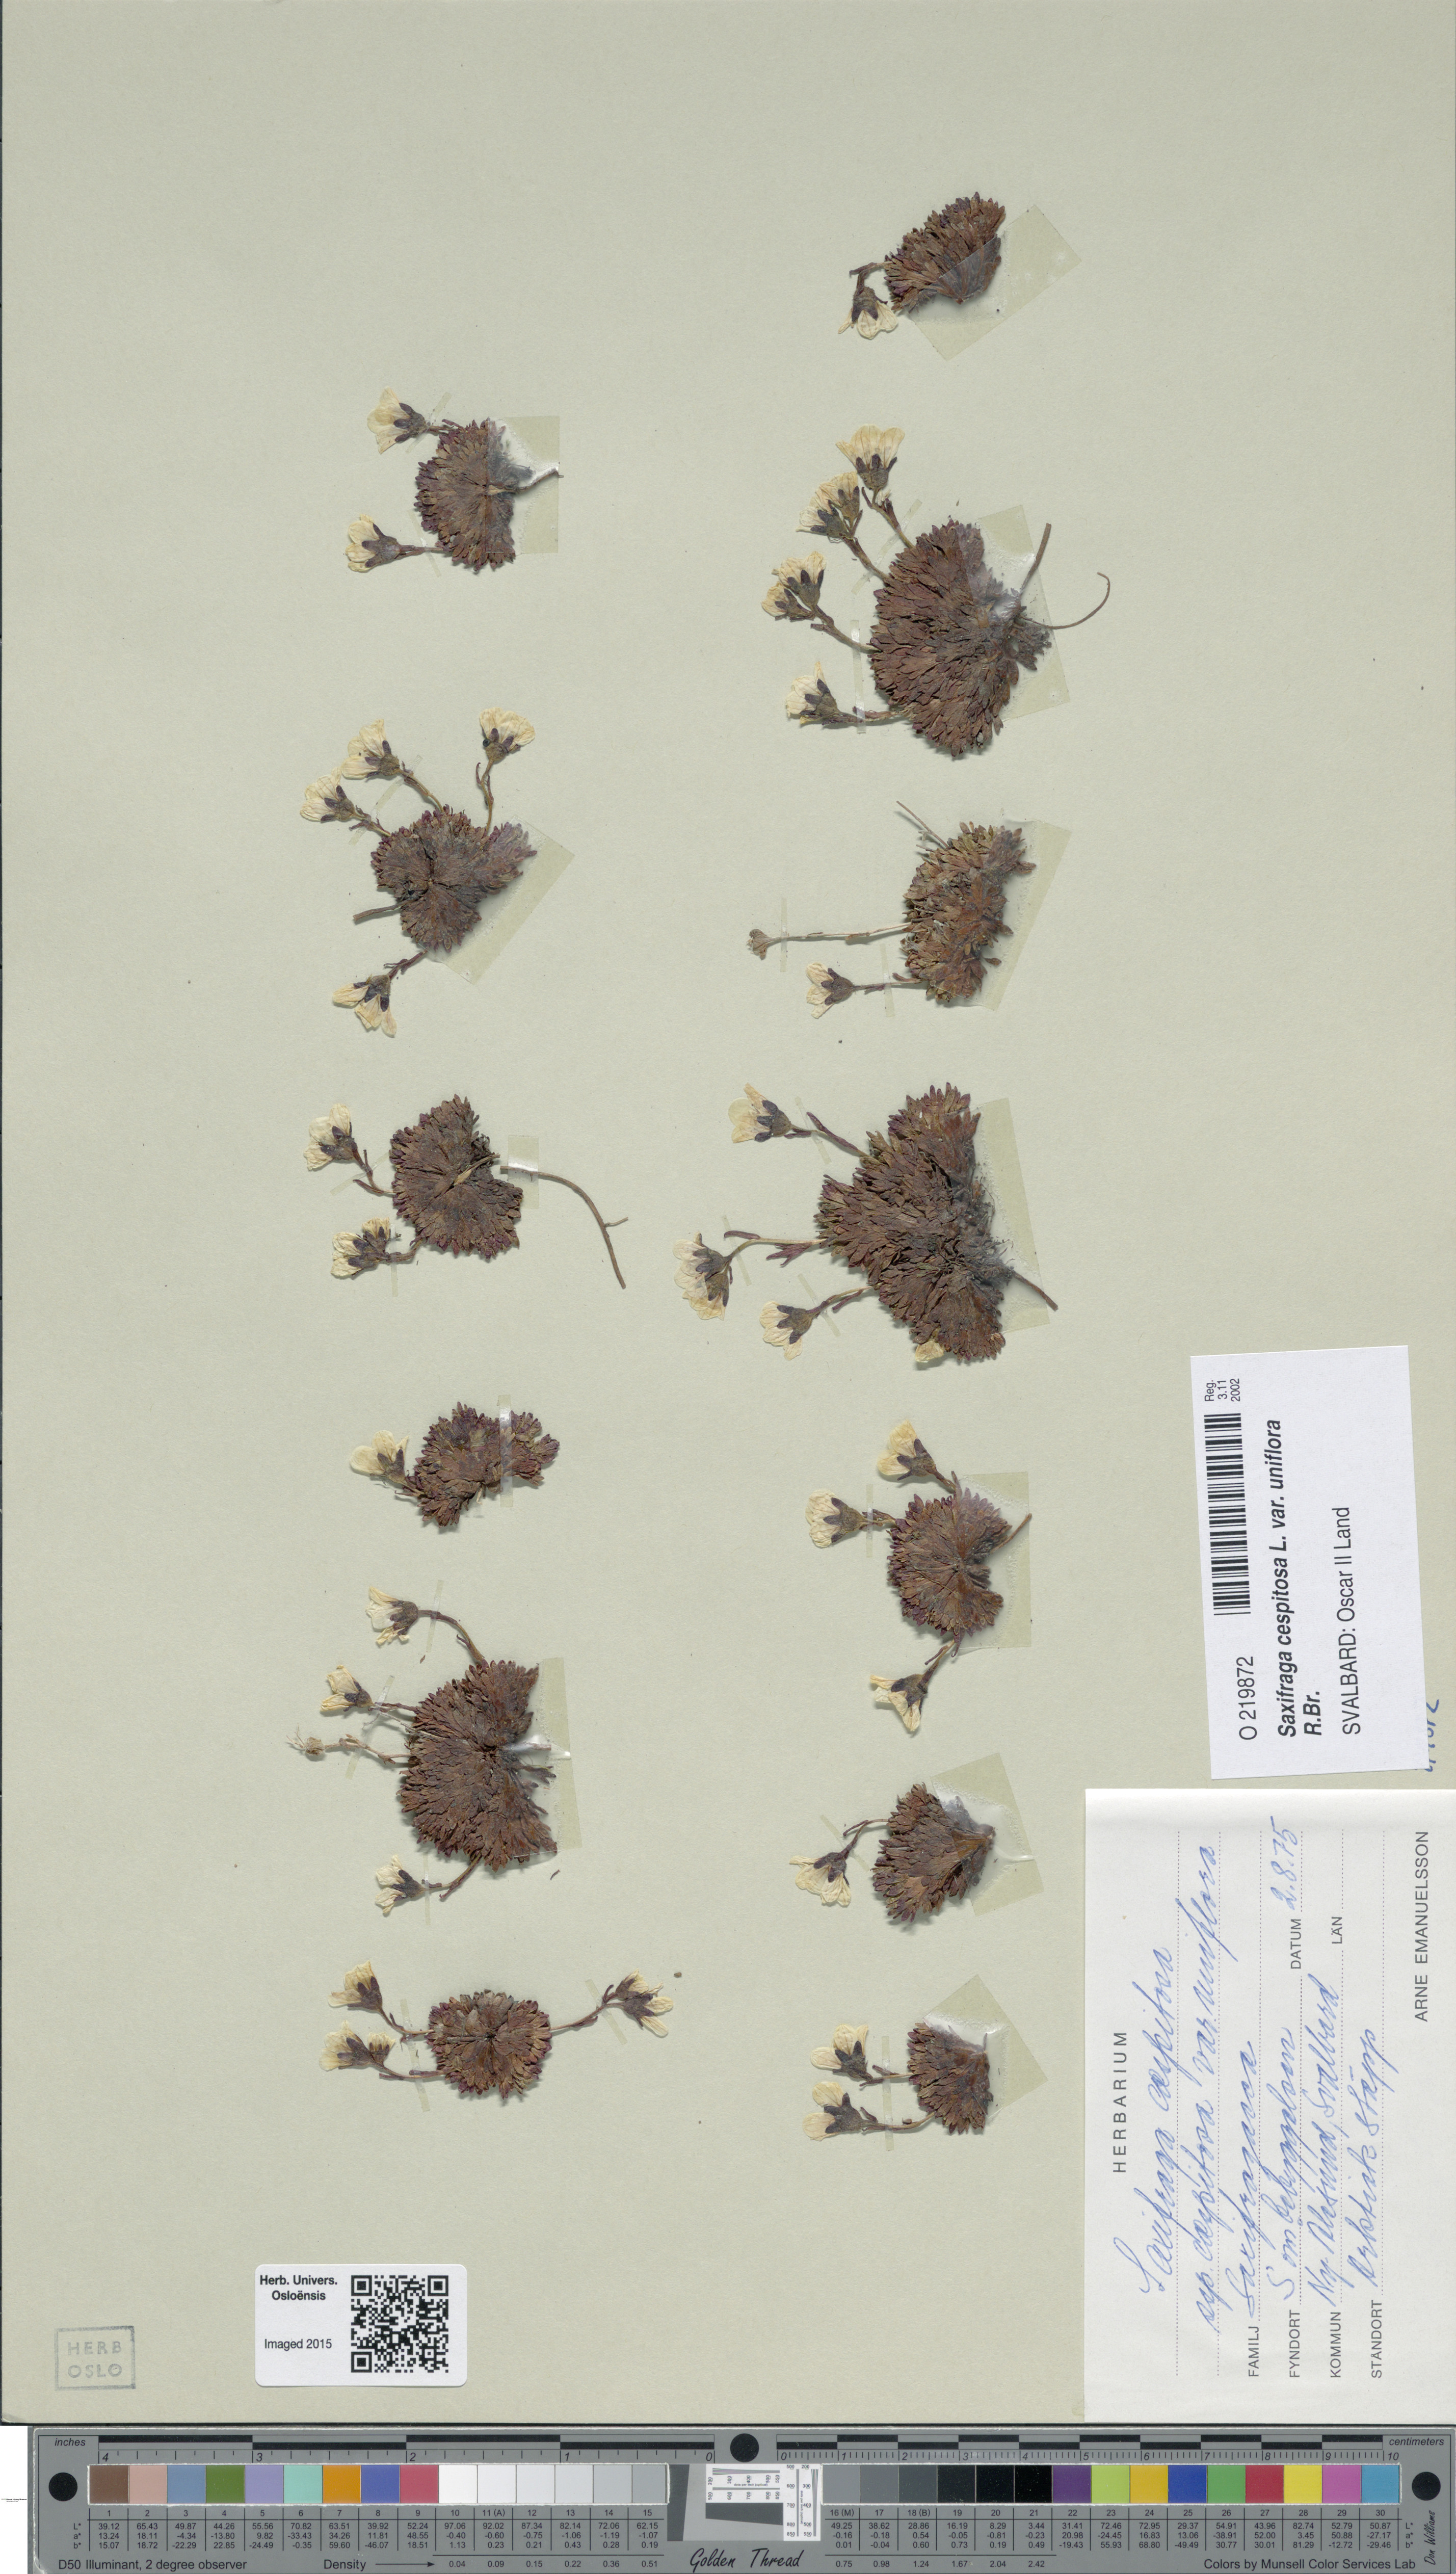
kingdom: Plantae
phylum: Tracheophyta
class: Magnoliopsida
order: Saxifragales
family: Saxifragaceae
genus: Saxifraga
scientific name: Saxifraga cespitosa
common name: Tufted saxifrage
